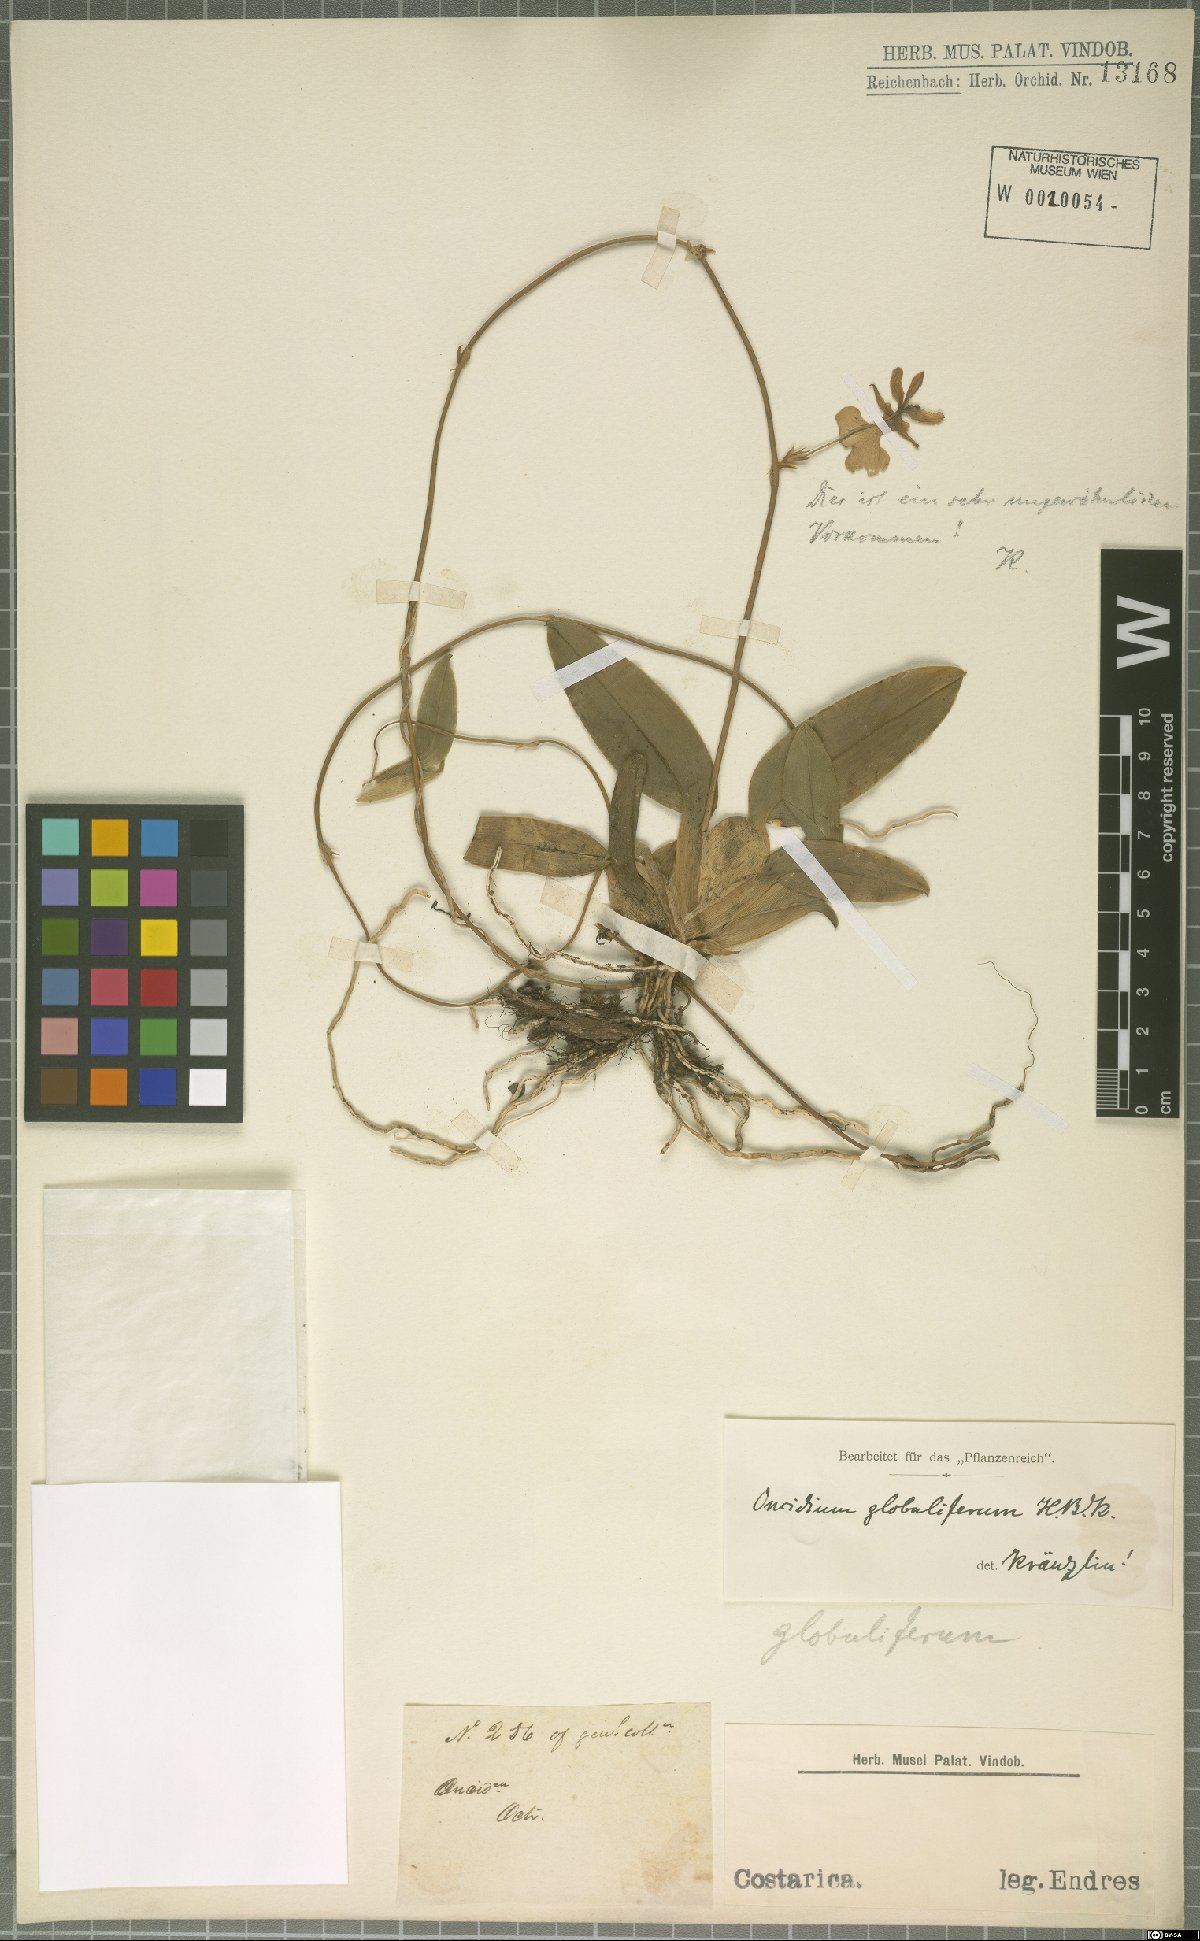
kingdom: Plantae
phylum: Tracheophyta
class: Liliopsida
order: Asparagales
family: Orchidaceae
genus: Otoglossum
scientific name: Otoglossum globuliferum
